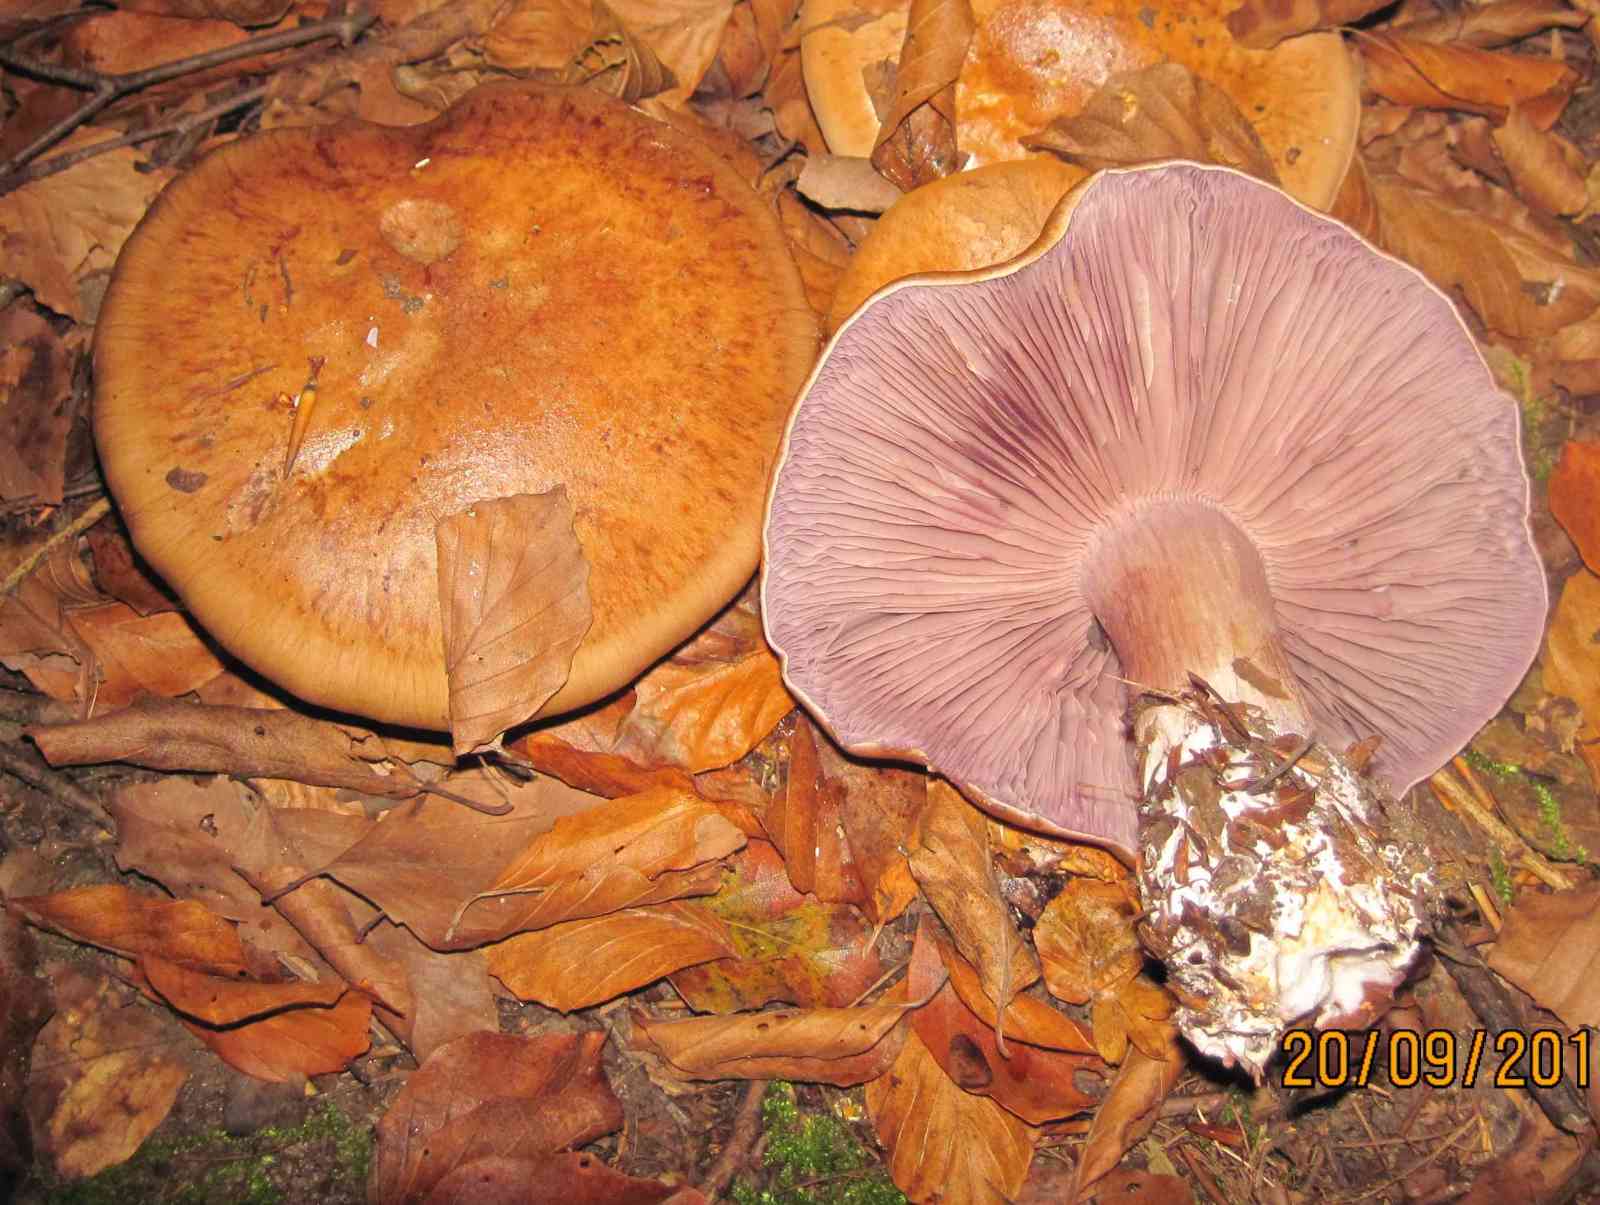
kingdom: Fungi
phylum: Basidiomycota
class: Agaricomycetes
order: Agaricales
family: Cortinariaceae
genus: Thaxterogaster
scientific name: Thaxterogaster subpurpurascens
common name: mørkblånende slørhat
